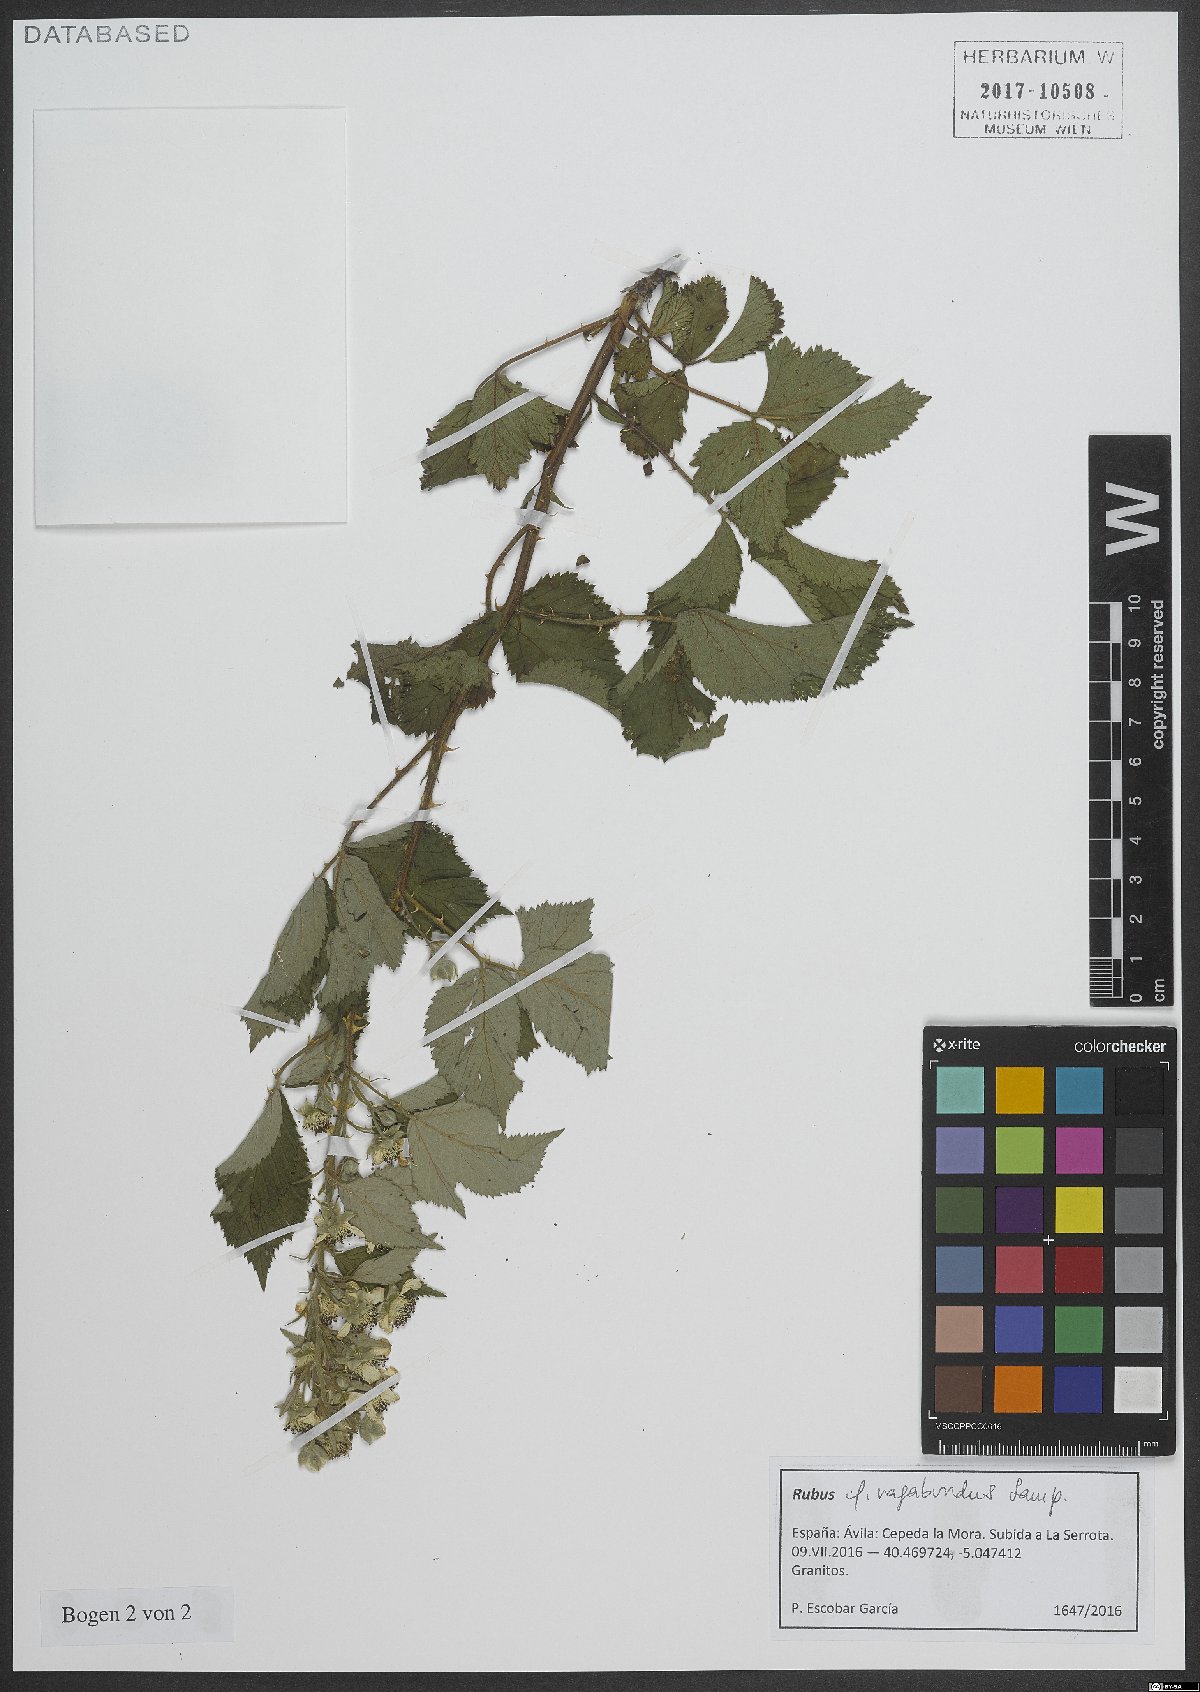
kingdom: Plantae
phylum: Tracheophyta
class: Magnoliopsida
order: Rosales
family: Rosaceae
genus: Rubus
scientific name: Rubus vagabundus
